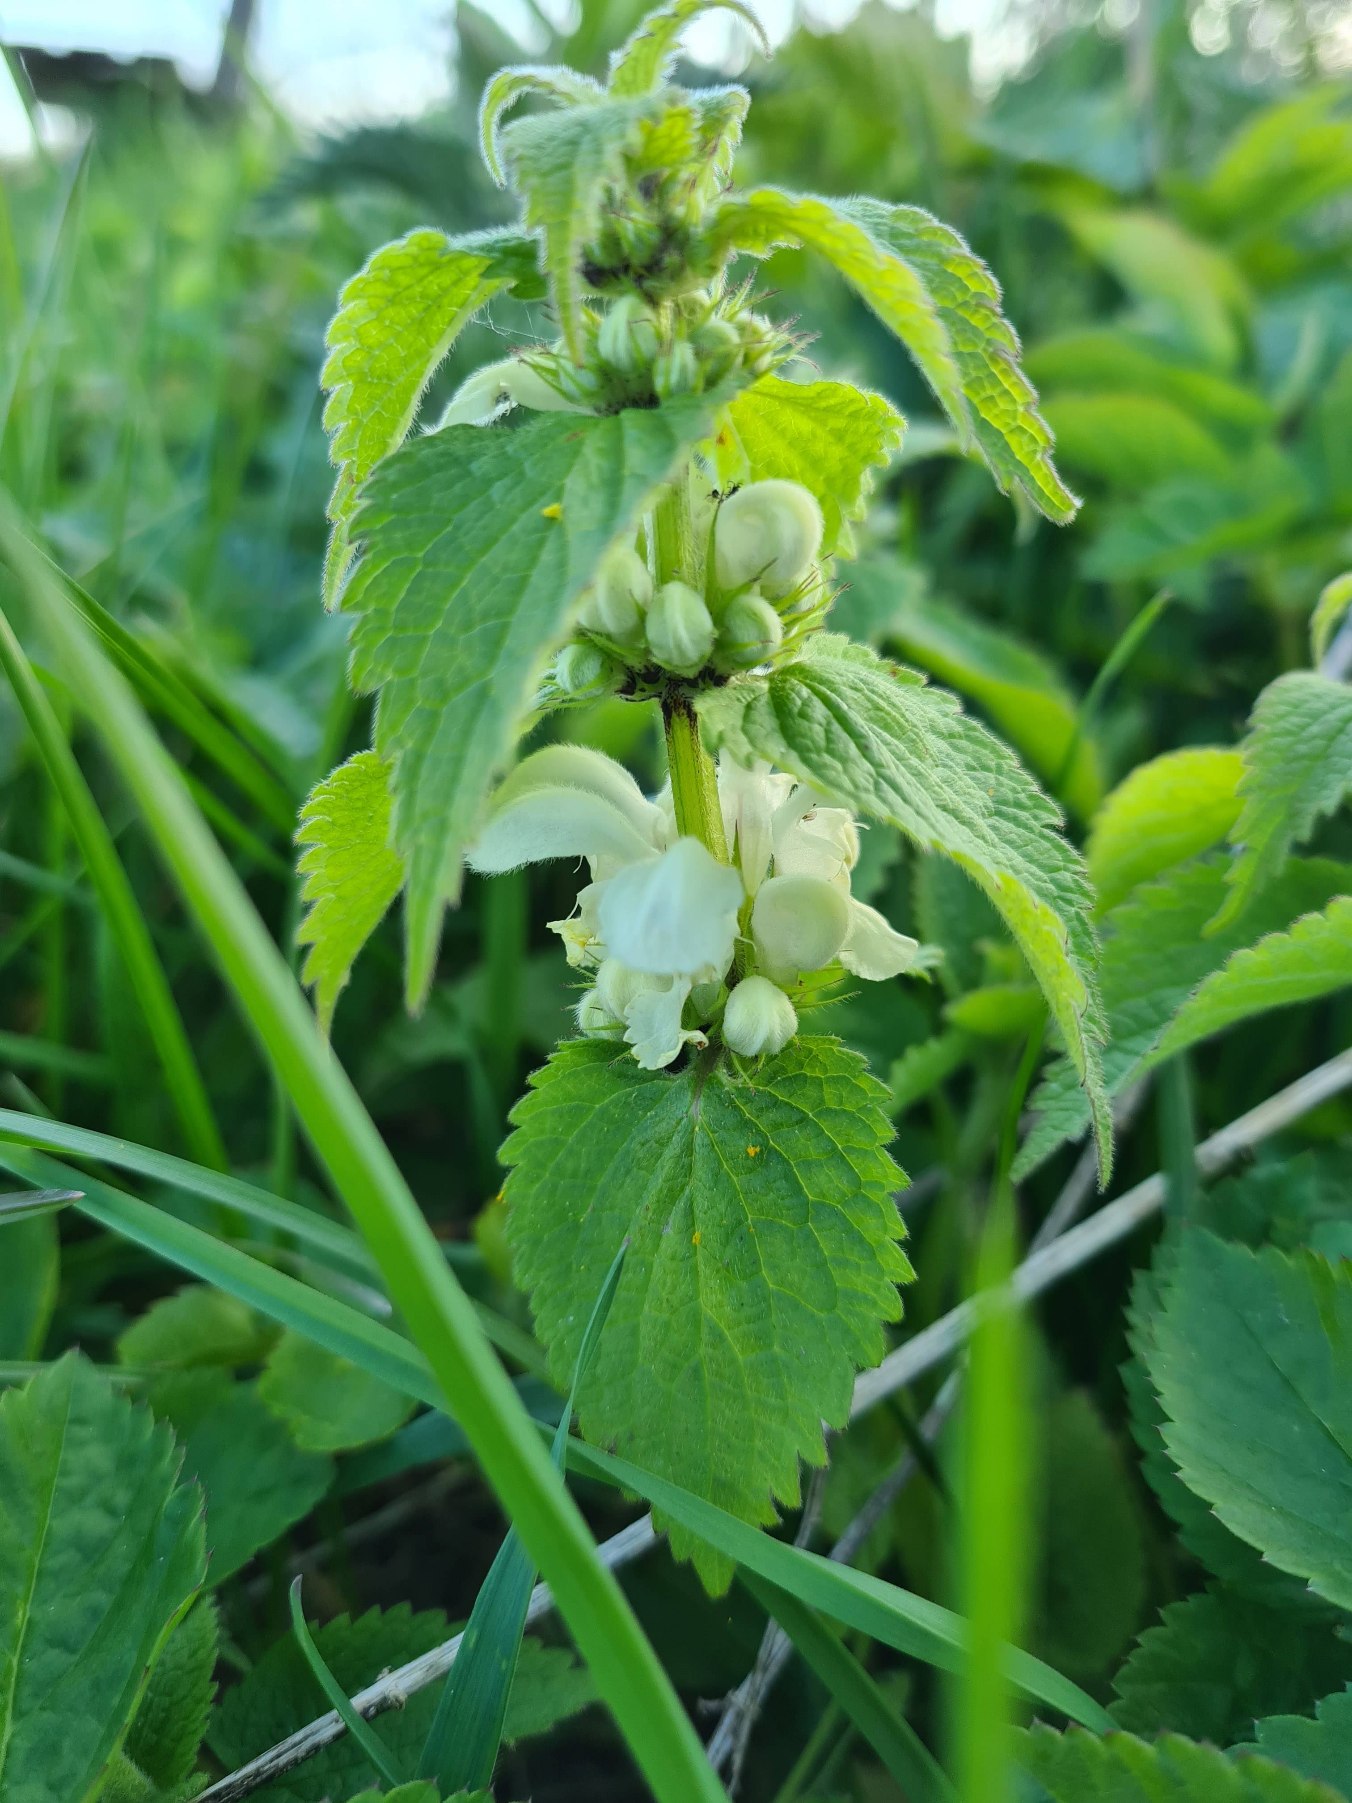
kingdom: Plantae
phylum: Tracheophyta
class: Magnoliopsida
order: Lamiales
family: Lamiaceae
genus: Lamium
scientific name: Lamium album
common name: Døvnælde
